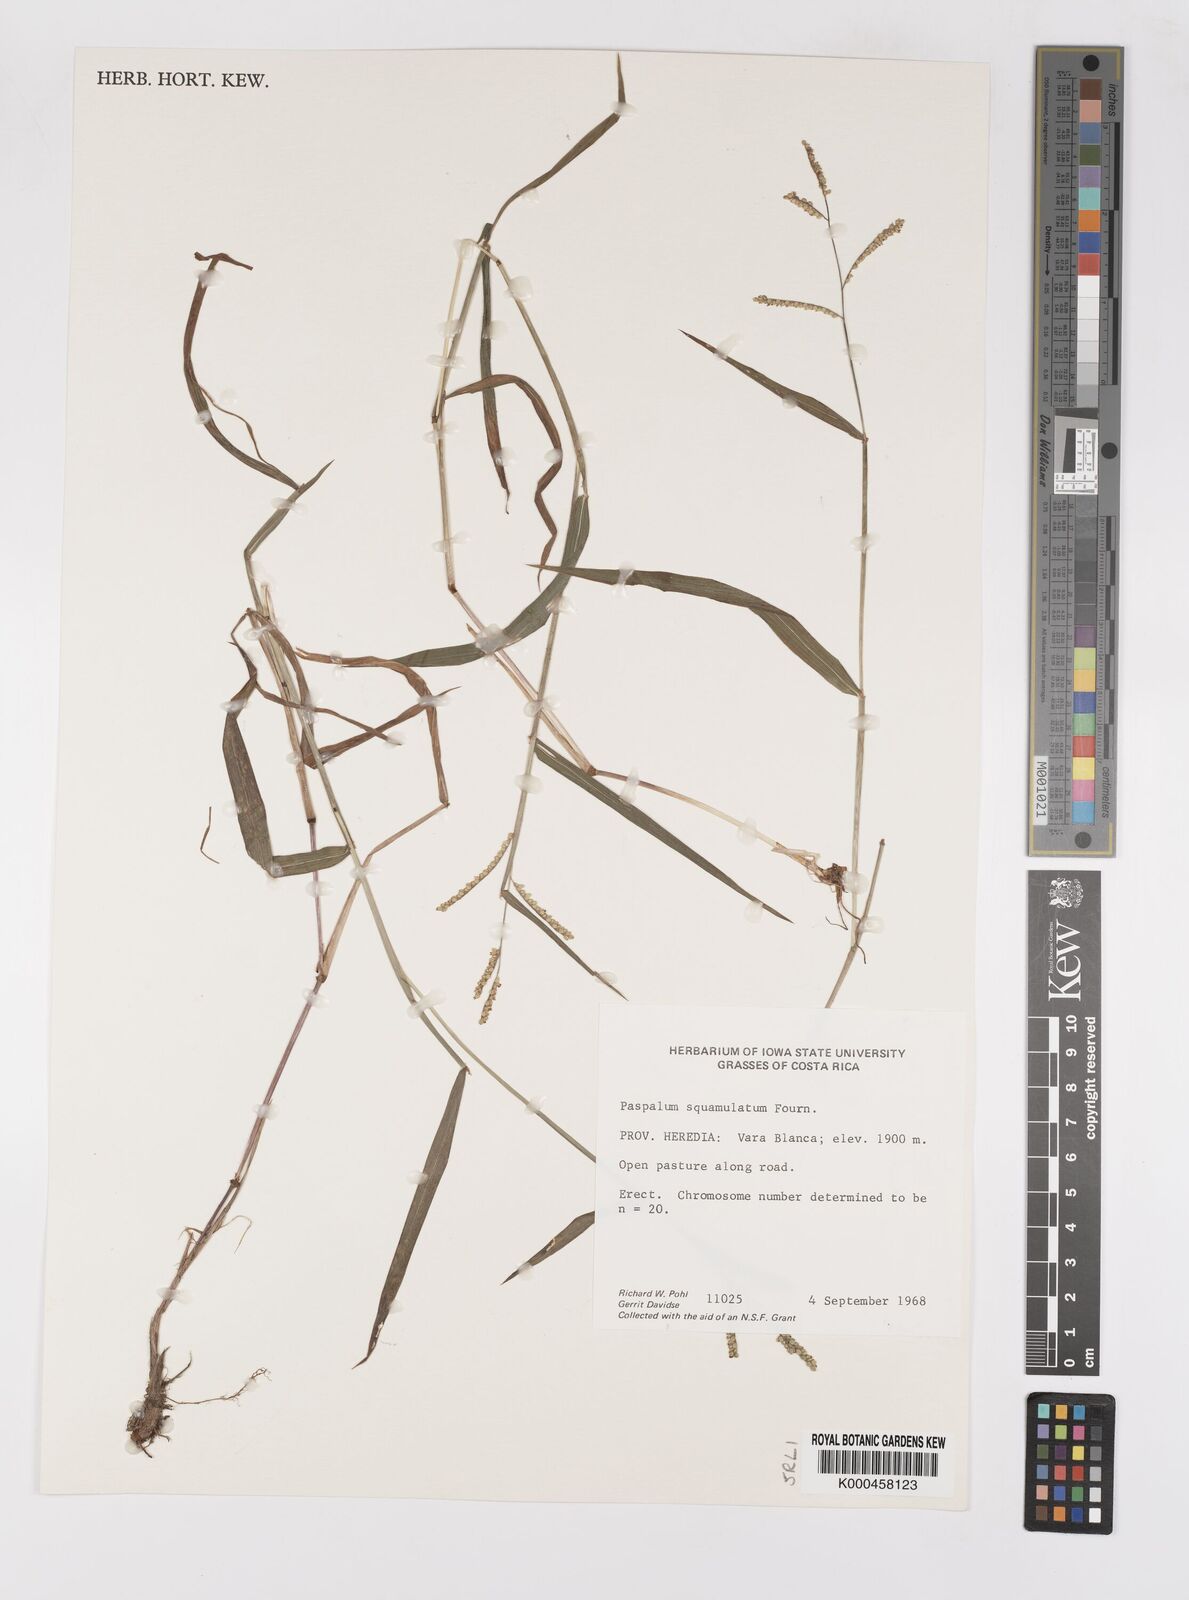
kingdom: Plantae
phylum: Tracheophyta
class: Liliopsida
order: Poales
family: Poaceae
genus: Paspalum
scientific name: Paspalum
